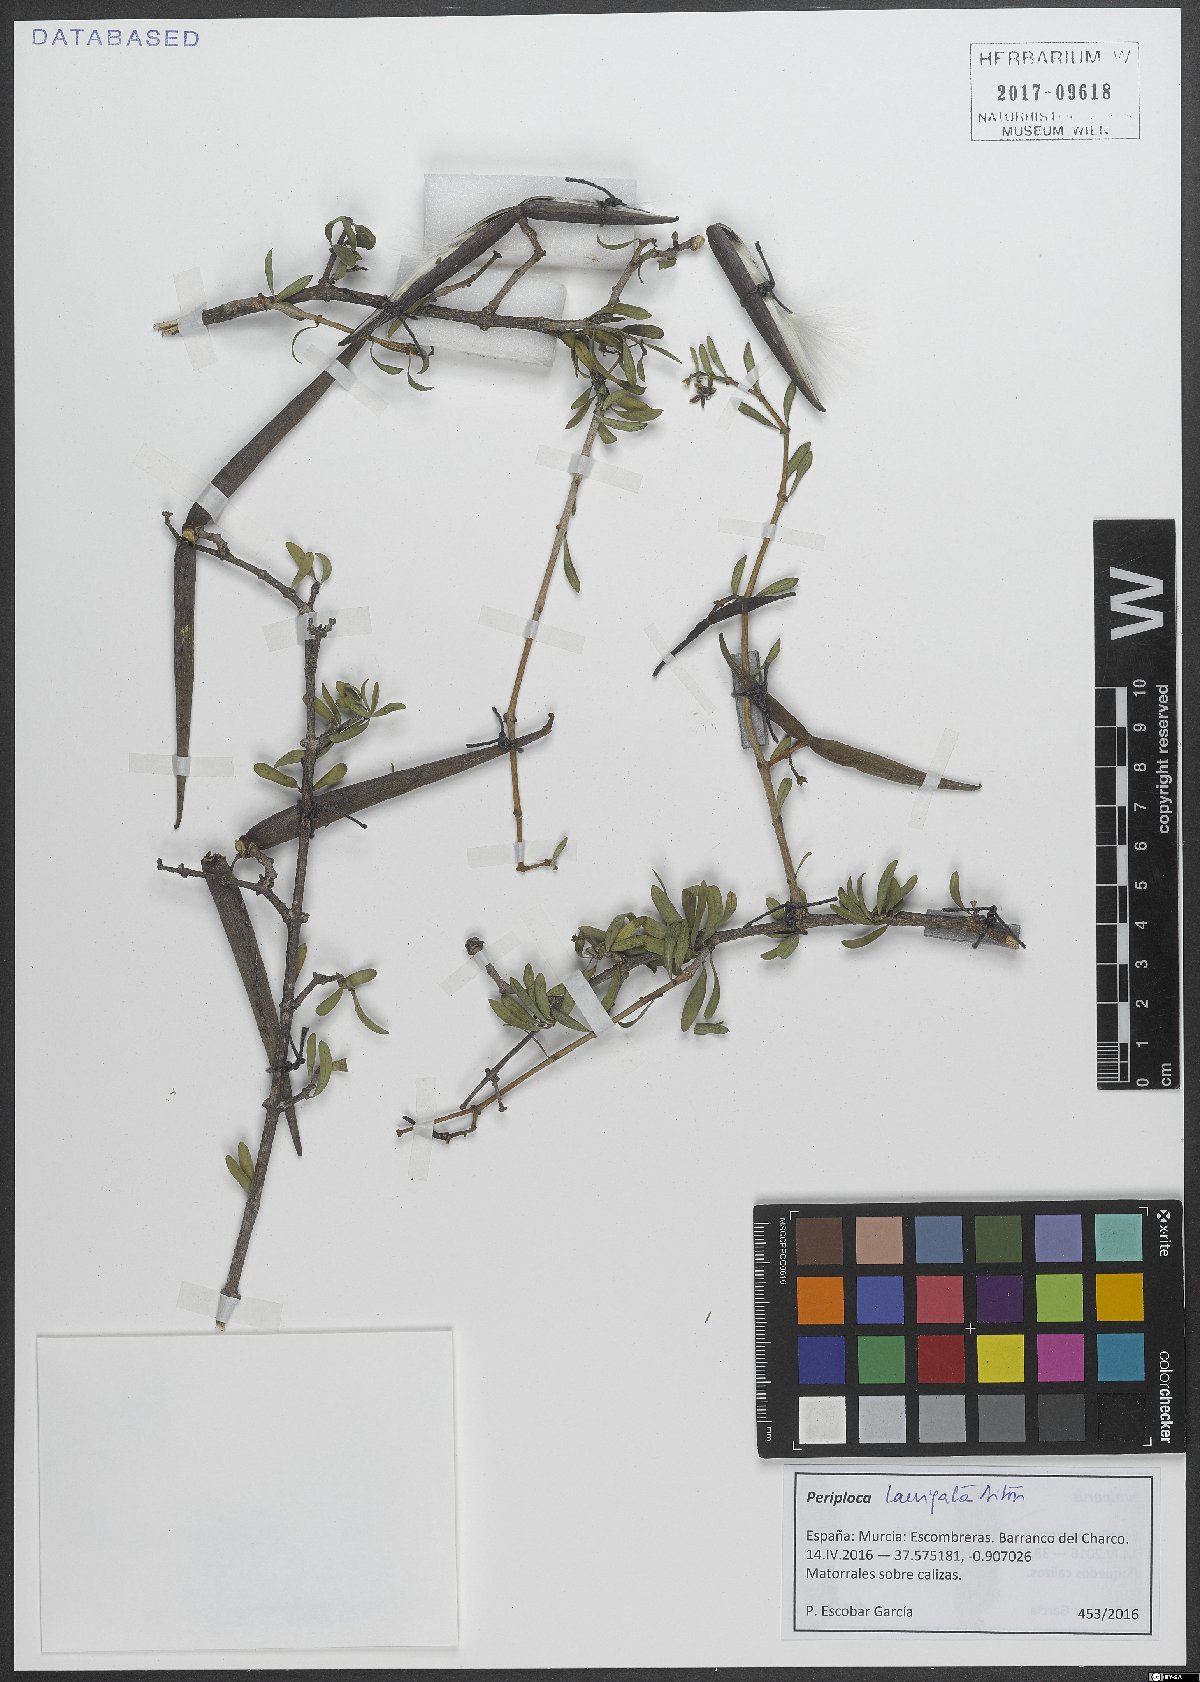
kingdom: Plantae
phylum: Tracheophyta
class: Magnoliopsida
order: Gentianales
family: Apocynaceae
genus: Periploca
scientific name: Periploca laevigata
